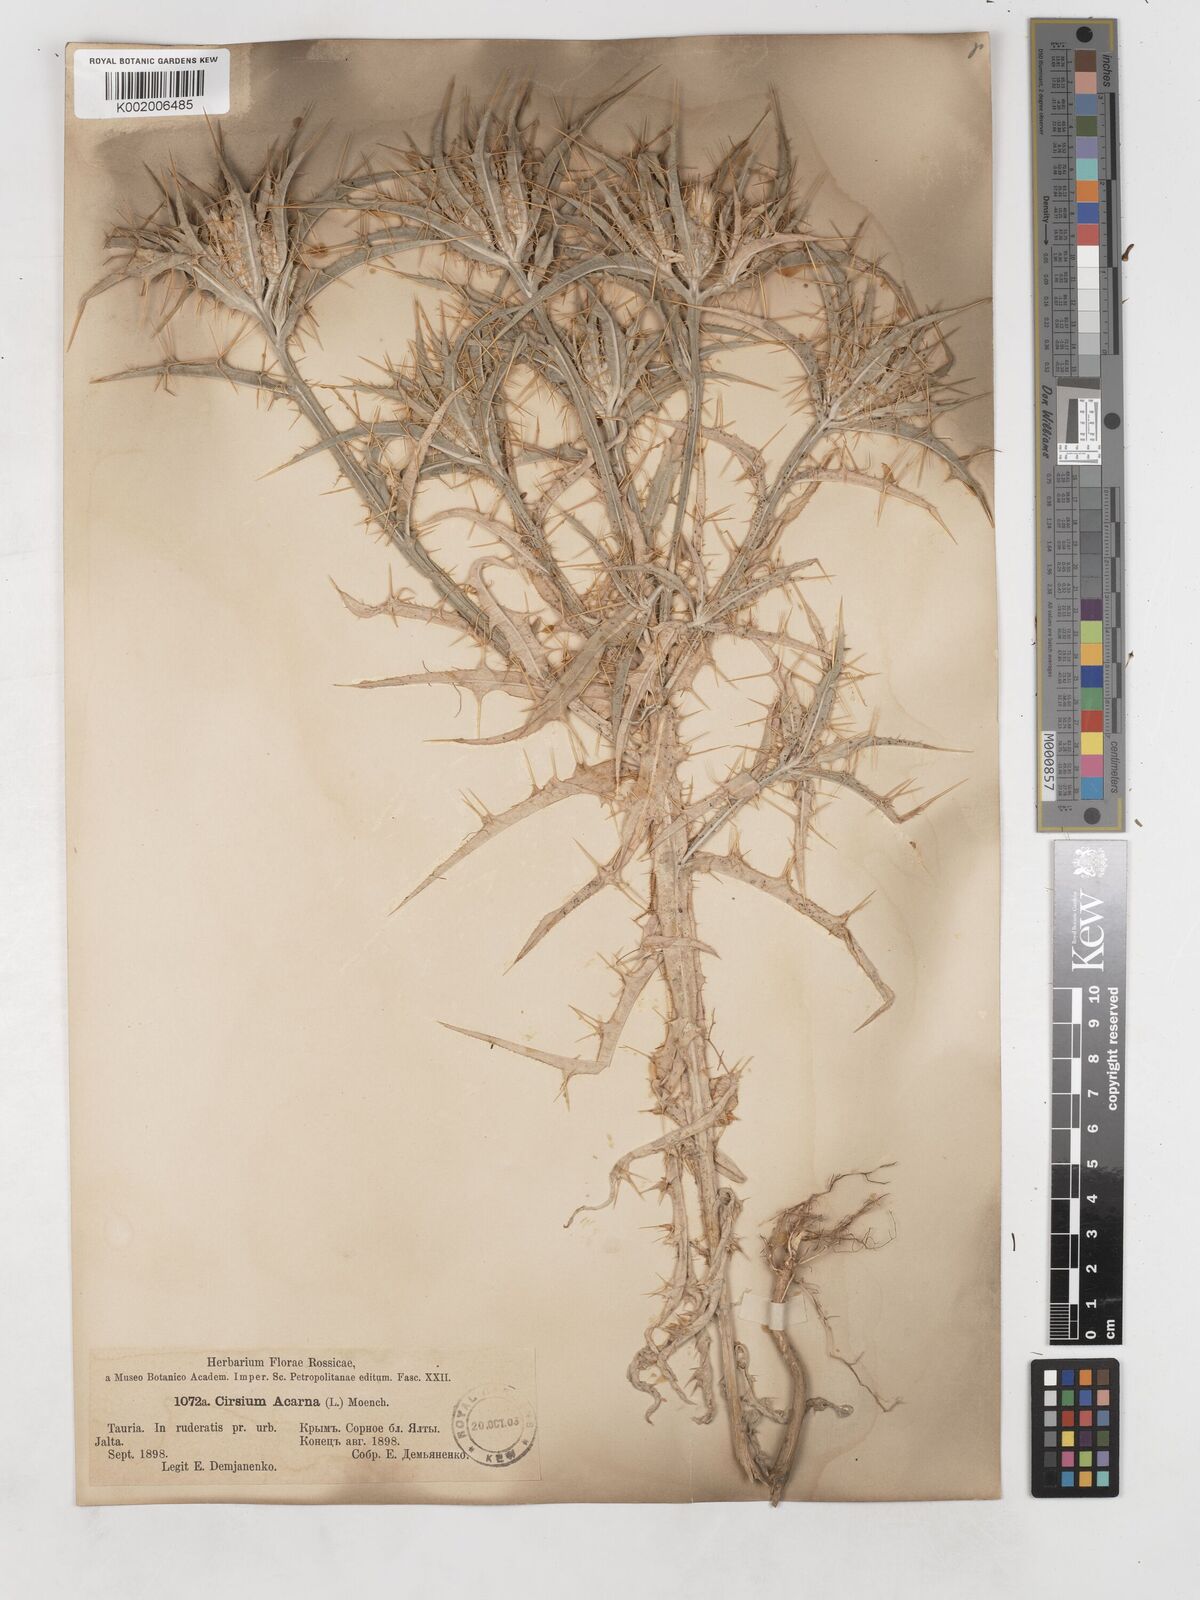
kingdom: Plantae
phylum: Tracheophyta
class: Magnoliopsida
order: Asterales
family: Asteraceae
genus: Picnomon
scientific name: Picnomon acarna
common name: Soldier thistle
